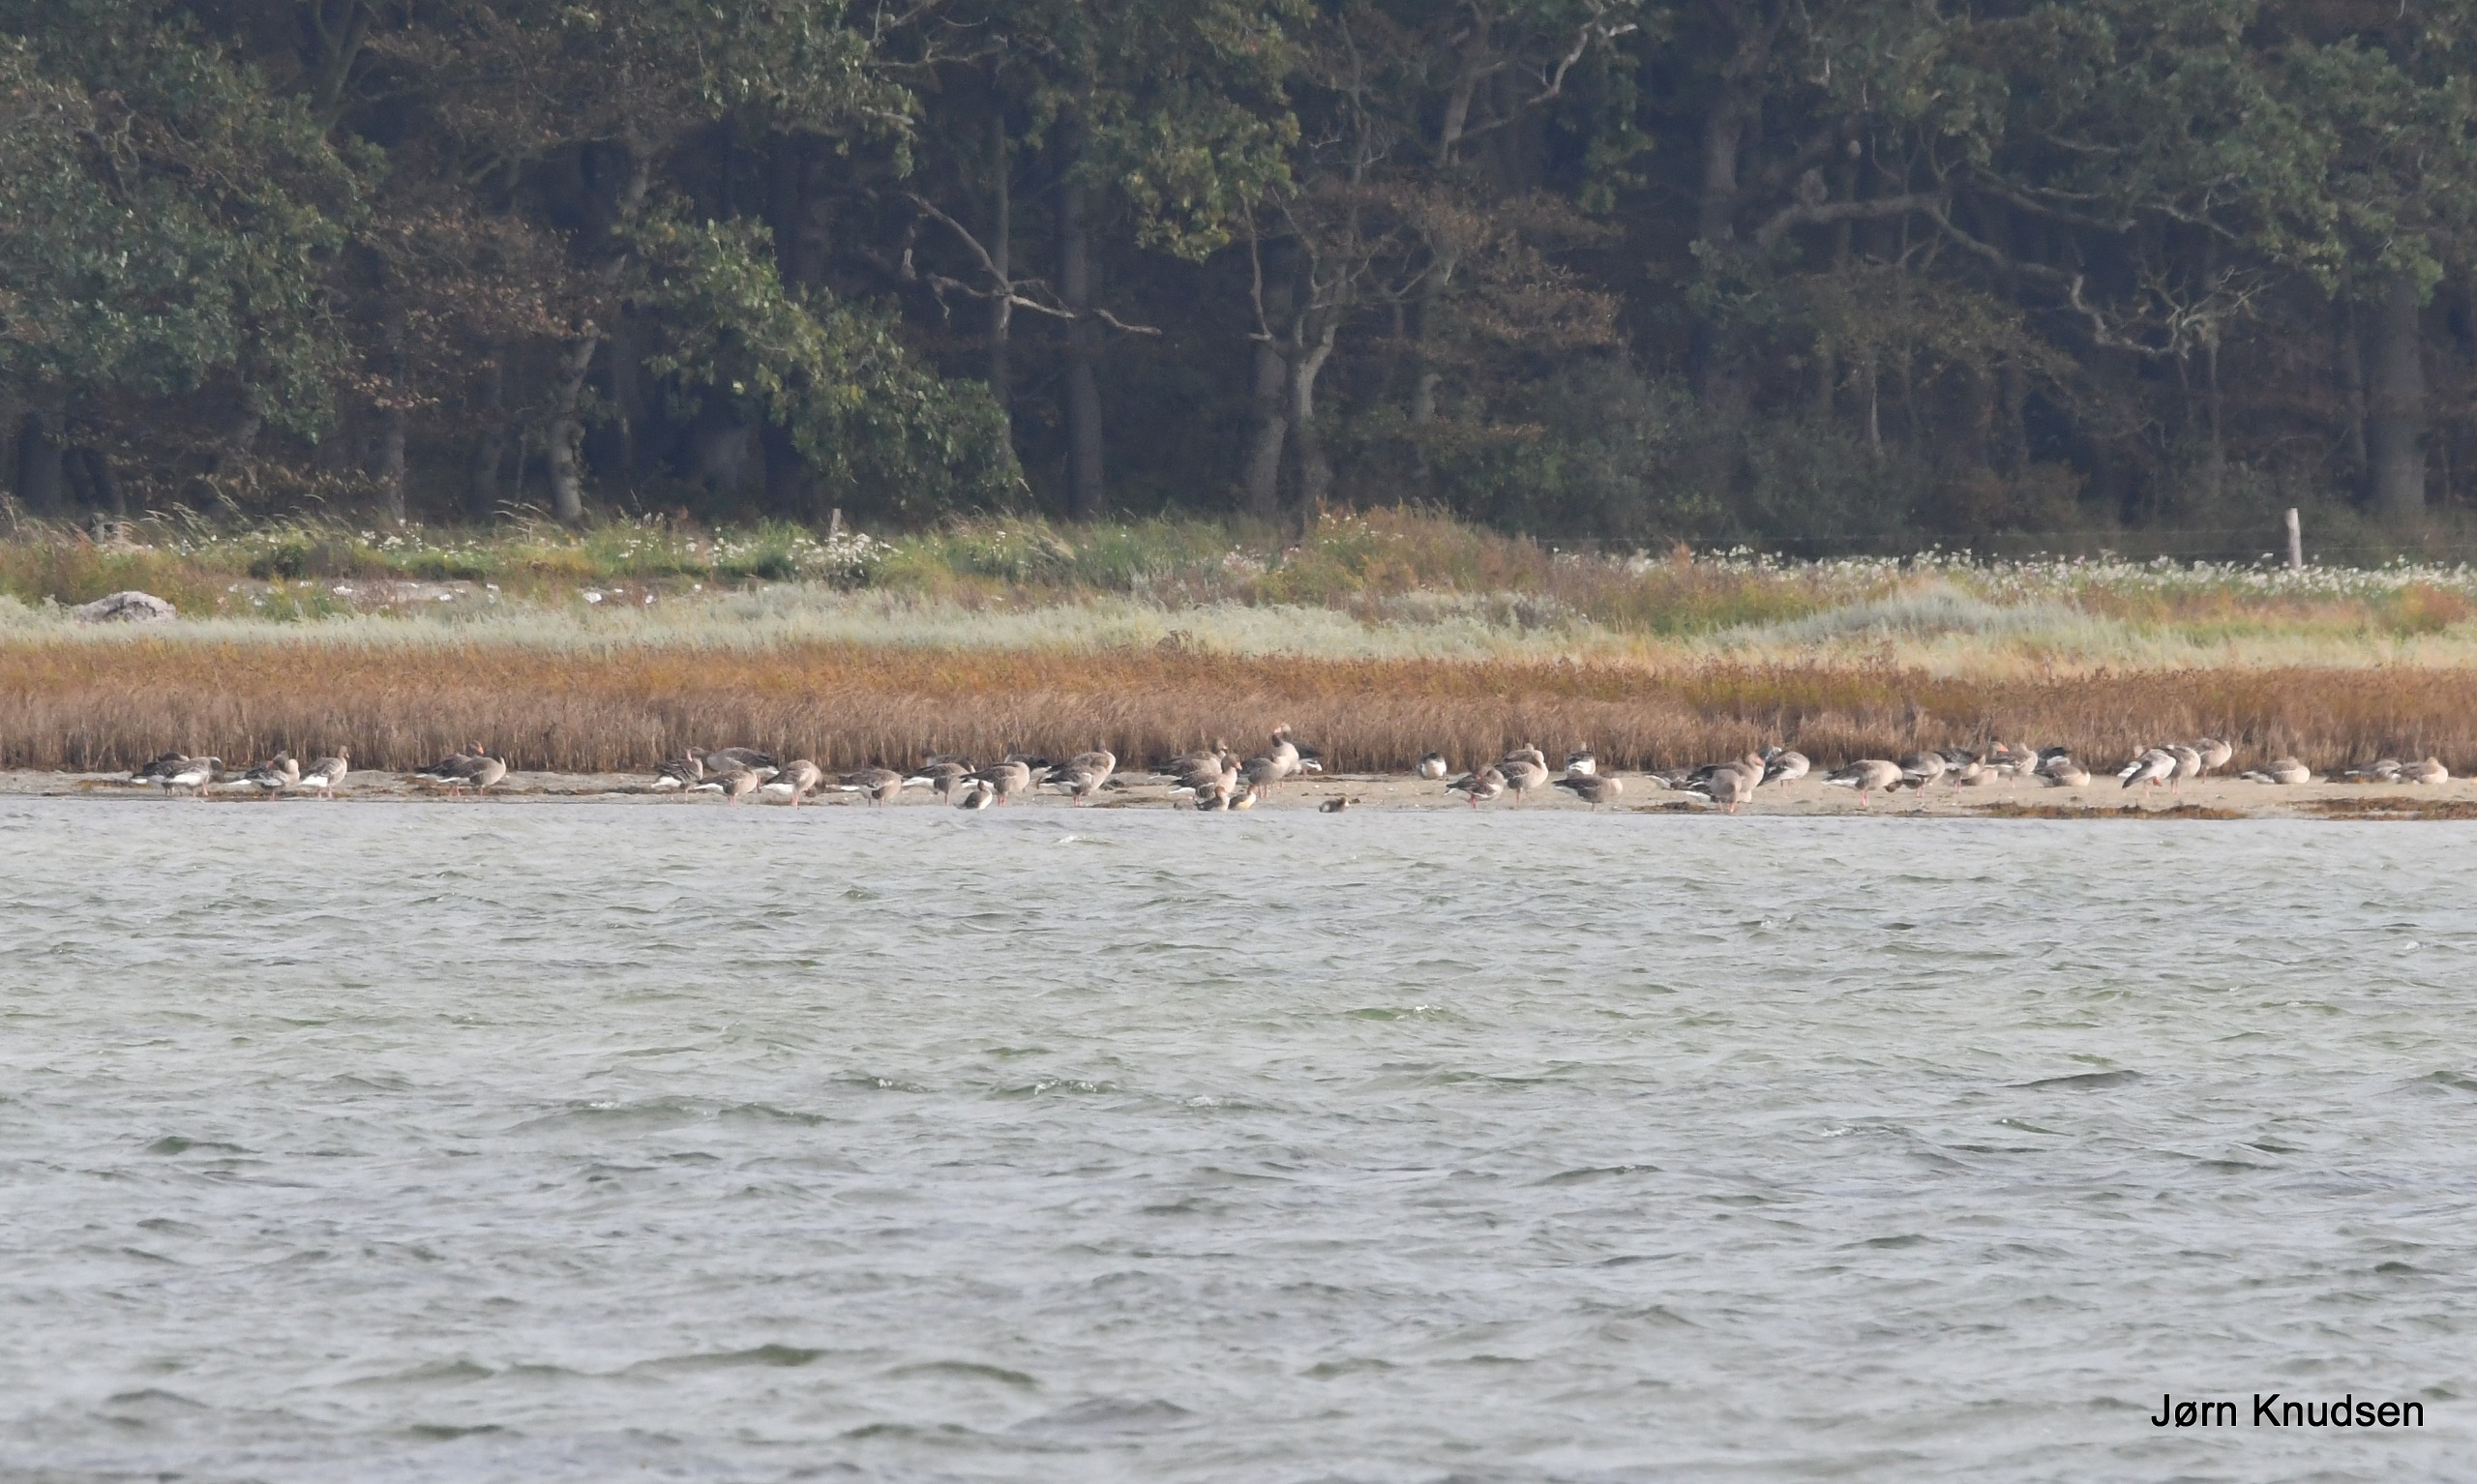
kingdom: Animalia
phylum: Chordata
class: Aves
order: Anseriformes
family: Anatidae
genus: Anser
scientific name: Anser anser
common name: Grågås
